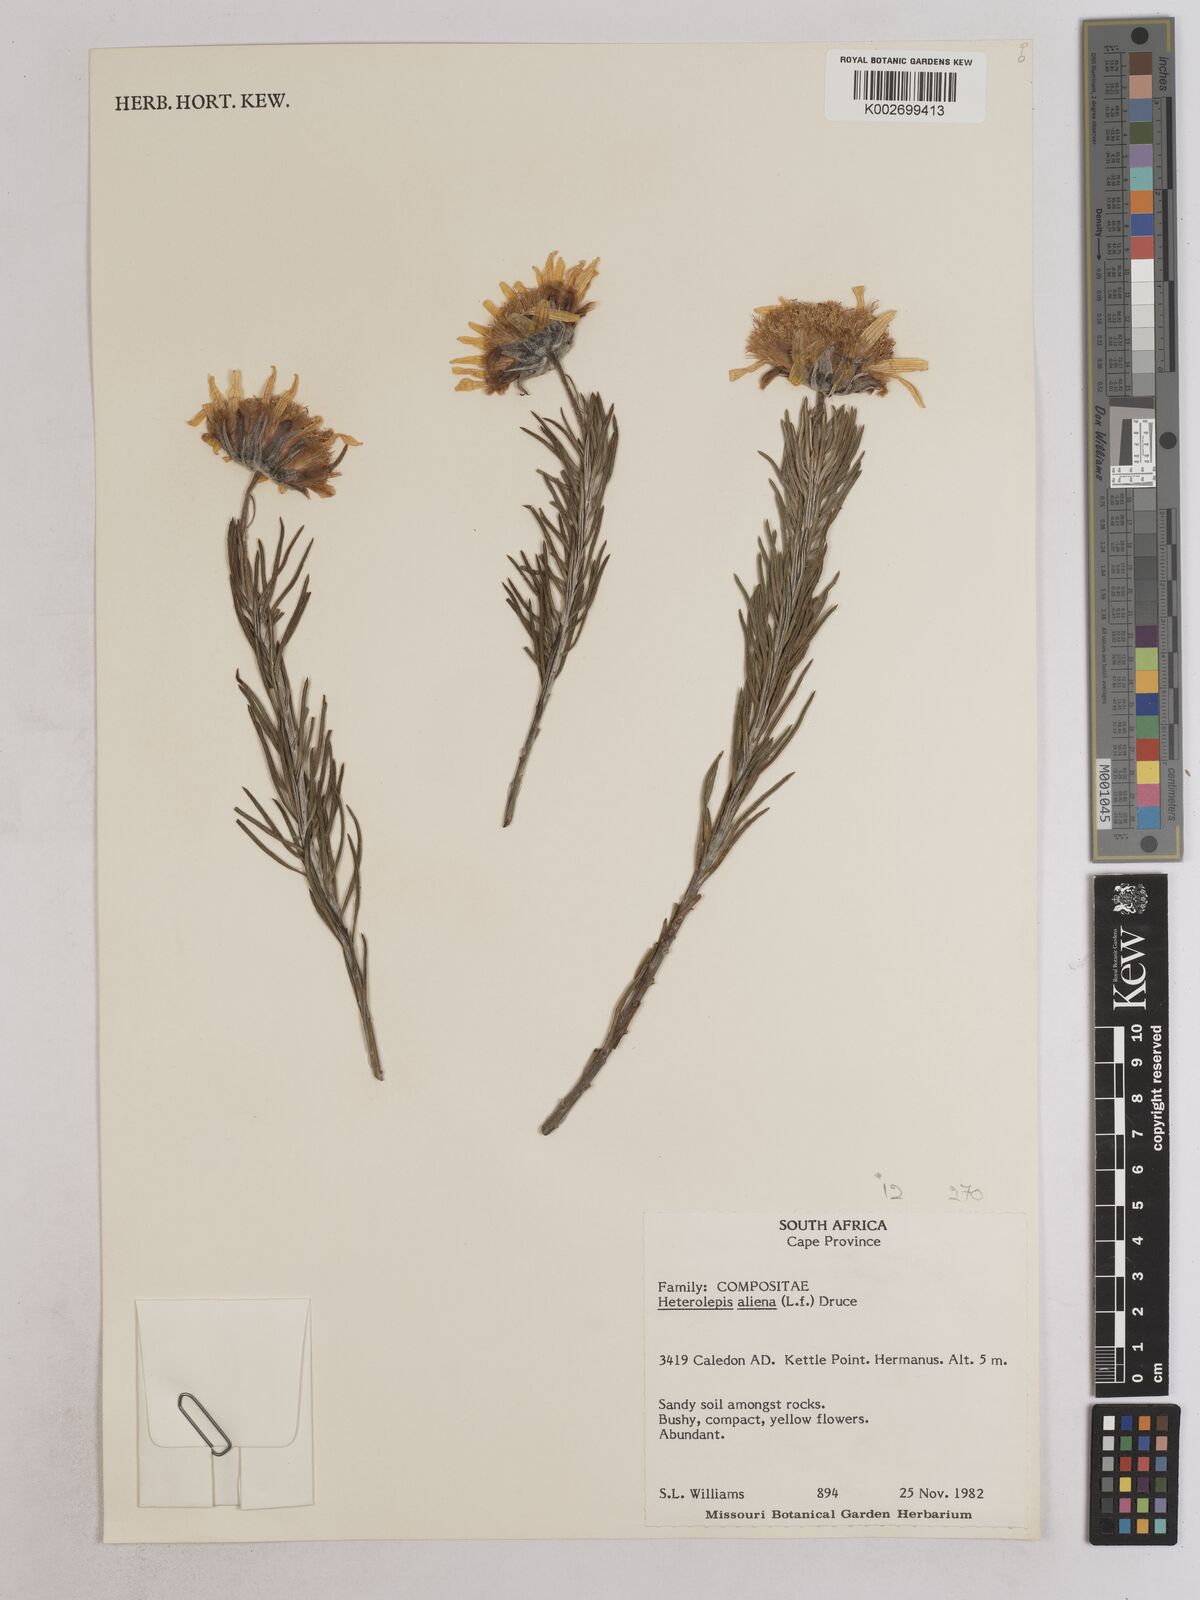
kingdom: Plantae
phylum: Tracheophyta
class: Magnoliopsida
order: Asterales
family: Asteraceae
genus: Heterolepis
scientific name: Heterolepis aliena
